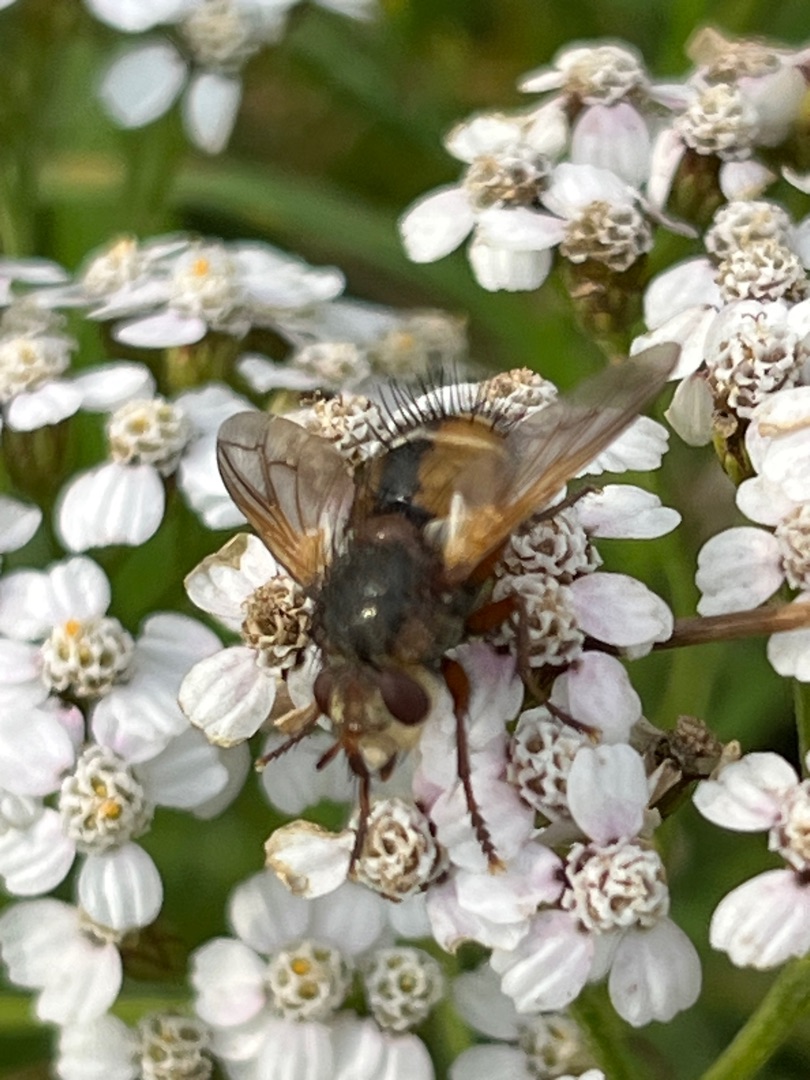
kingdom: Animalia
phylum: Arthropoda
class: Insecta
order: Diptera
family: Tachinidae
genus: Tachina
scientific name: Tachina fera
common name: Mellemfluen oskar
